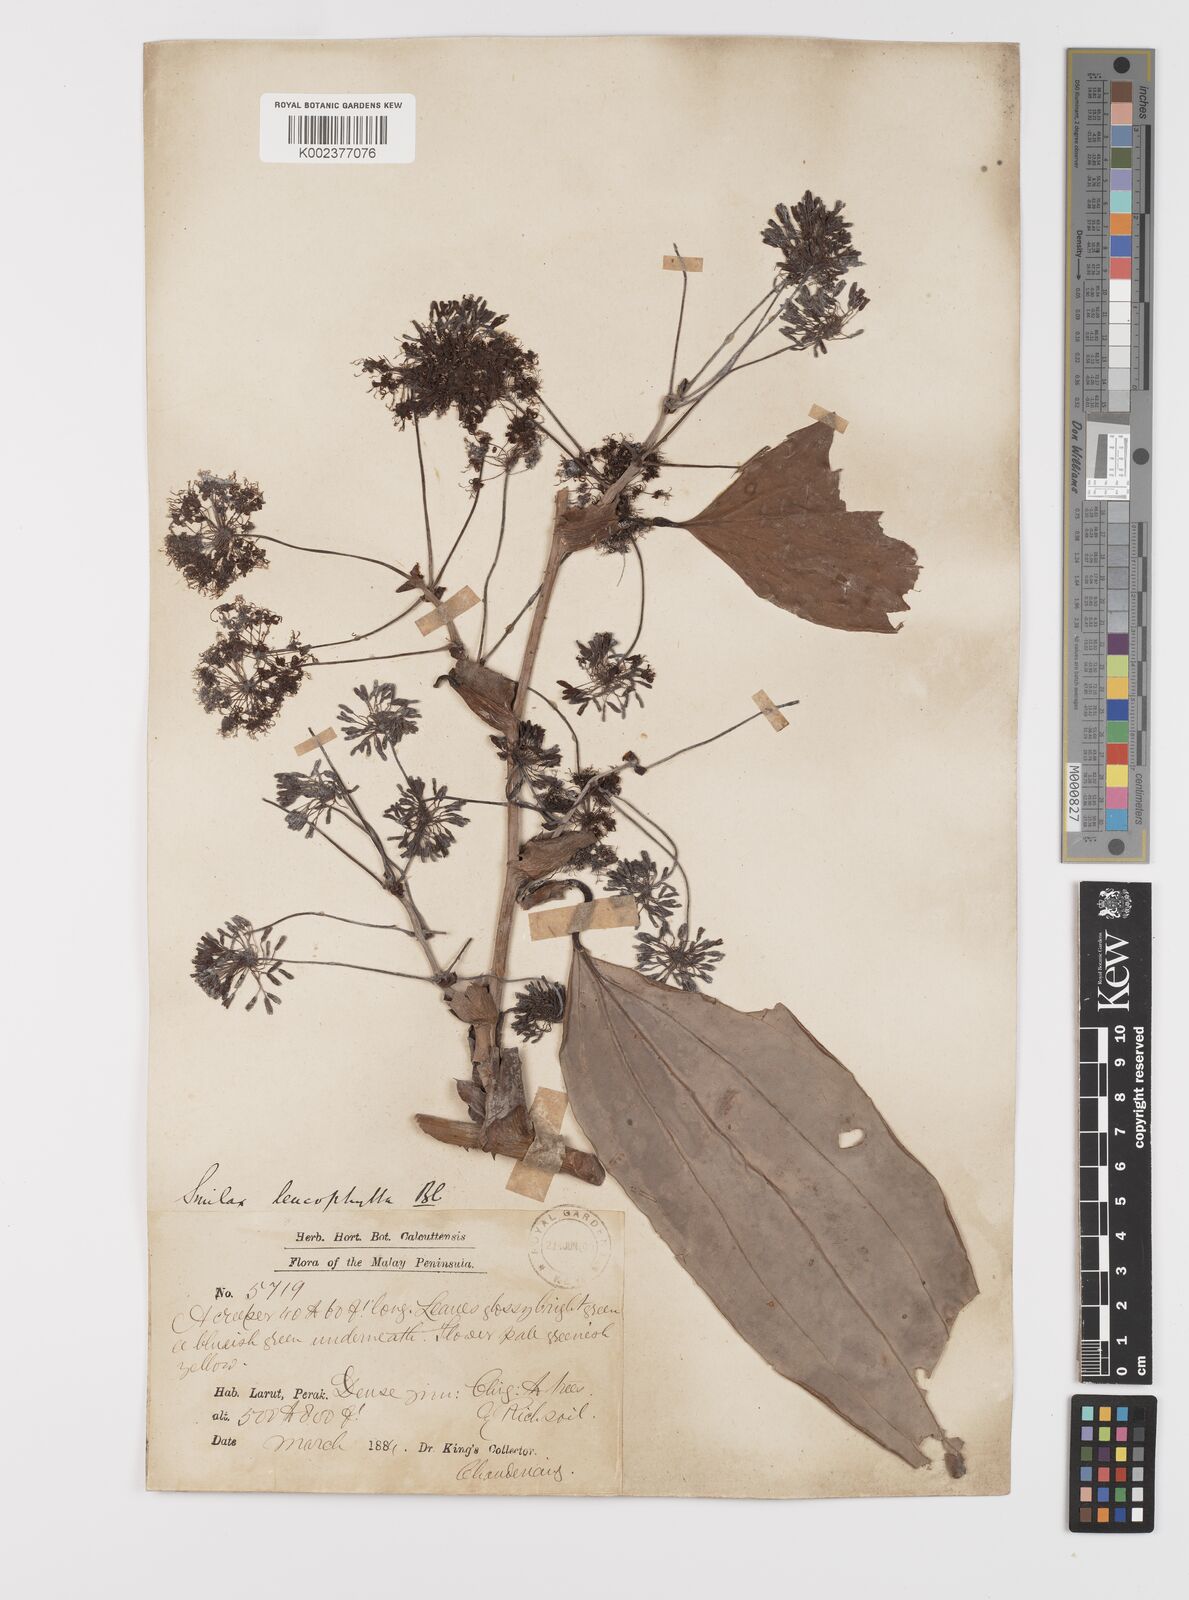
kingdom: Plantae
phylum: Tracheophyta
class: Liliopsida
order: Liliales
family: Smilacaceae
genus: Smilax
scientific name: Smilax leucophylla
